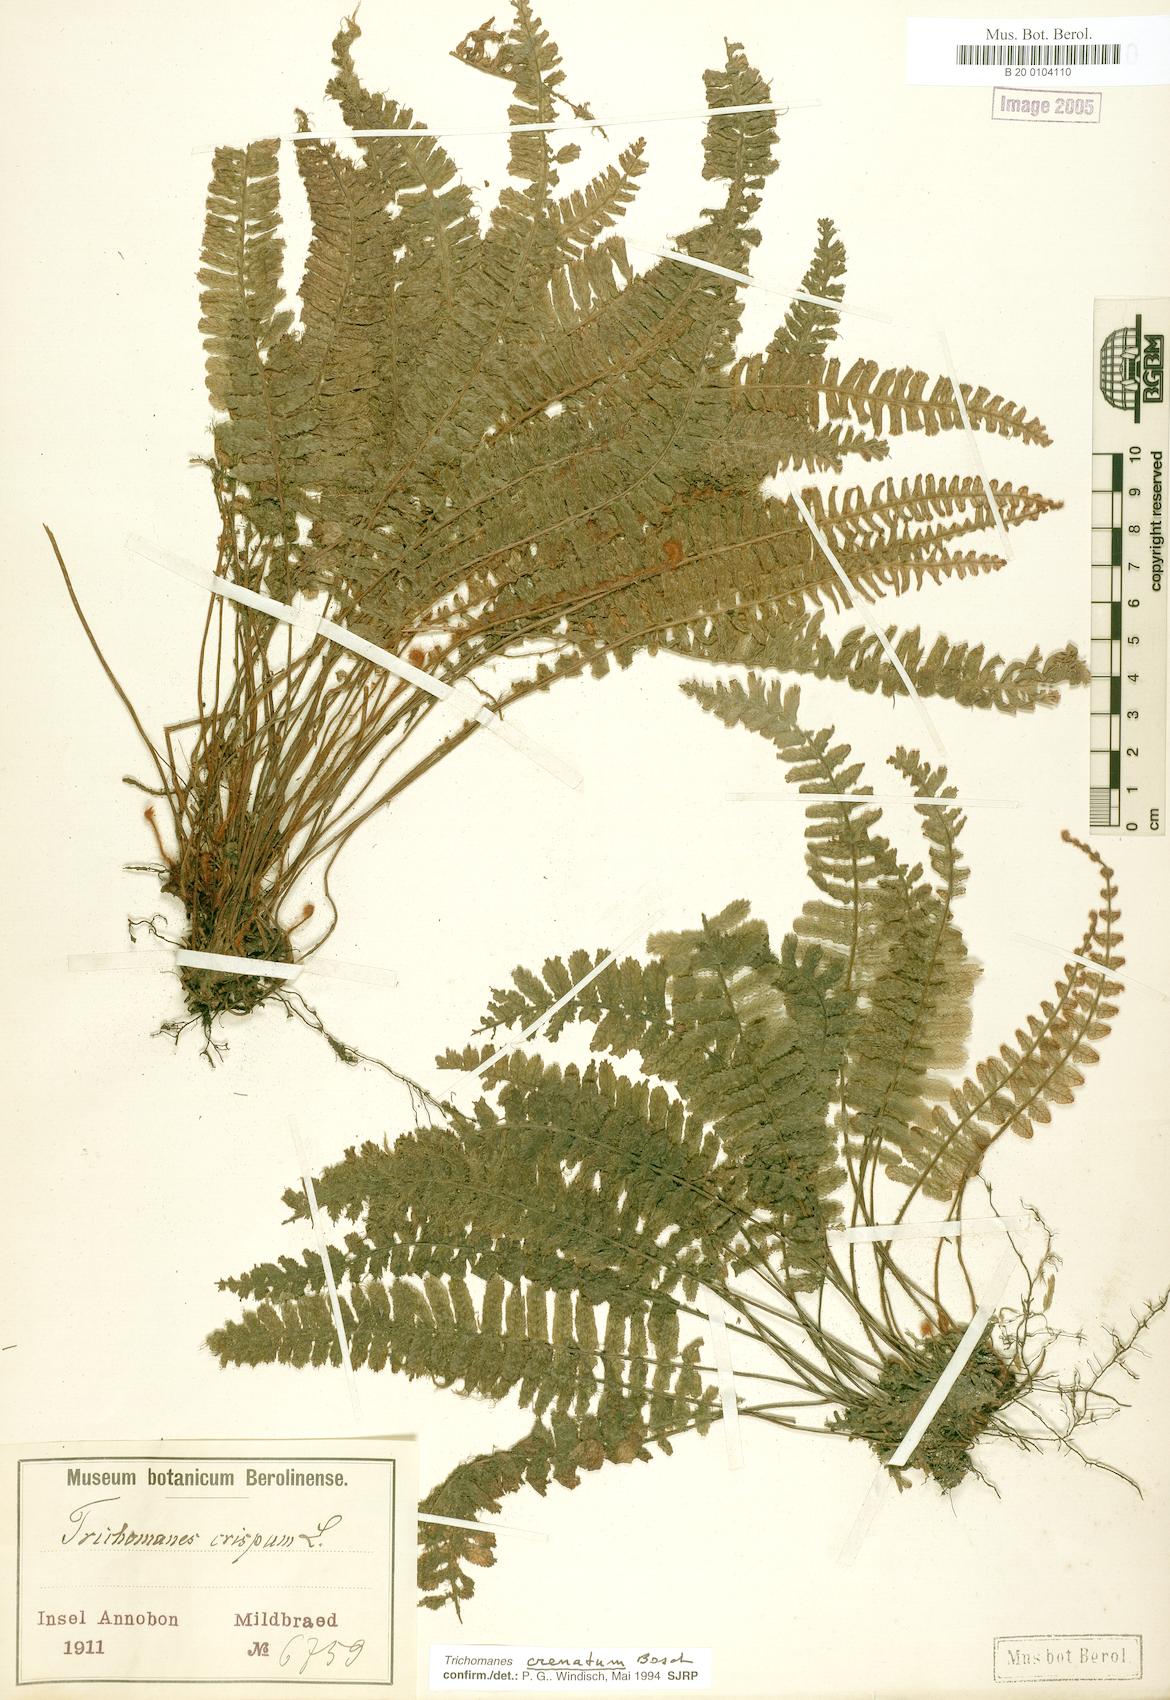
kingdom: Plantae
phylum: Tracheophyta
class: Polypodiopsida
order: Hymenophyllales
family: Hymenophyllaceae
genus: Trichomanes
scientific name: Trichomanes crispiforme
